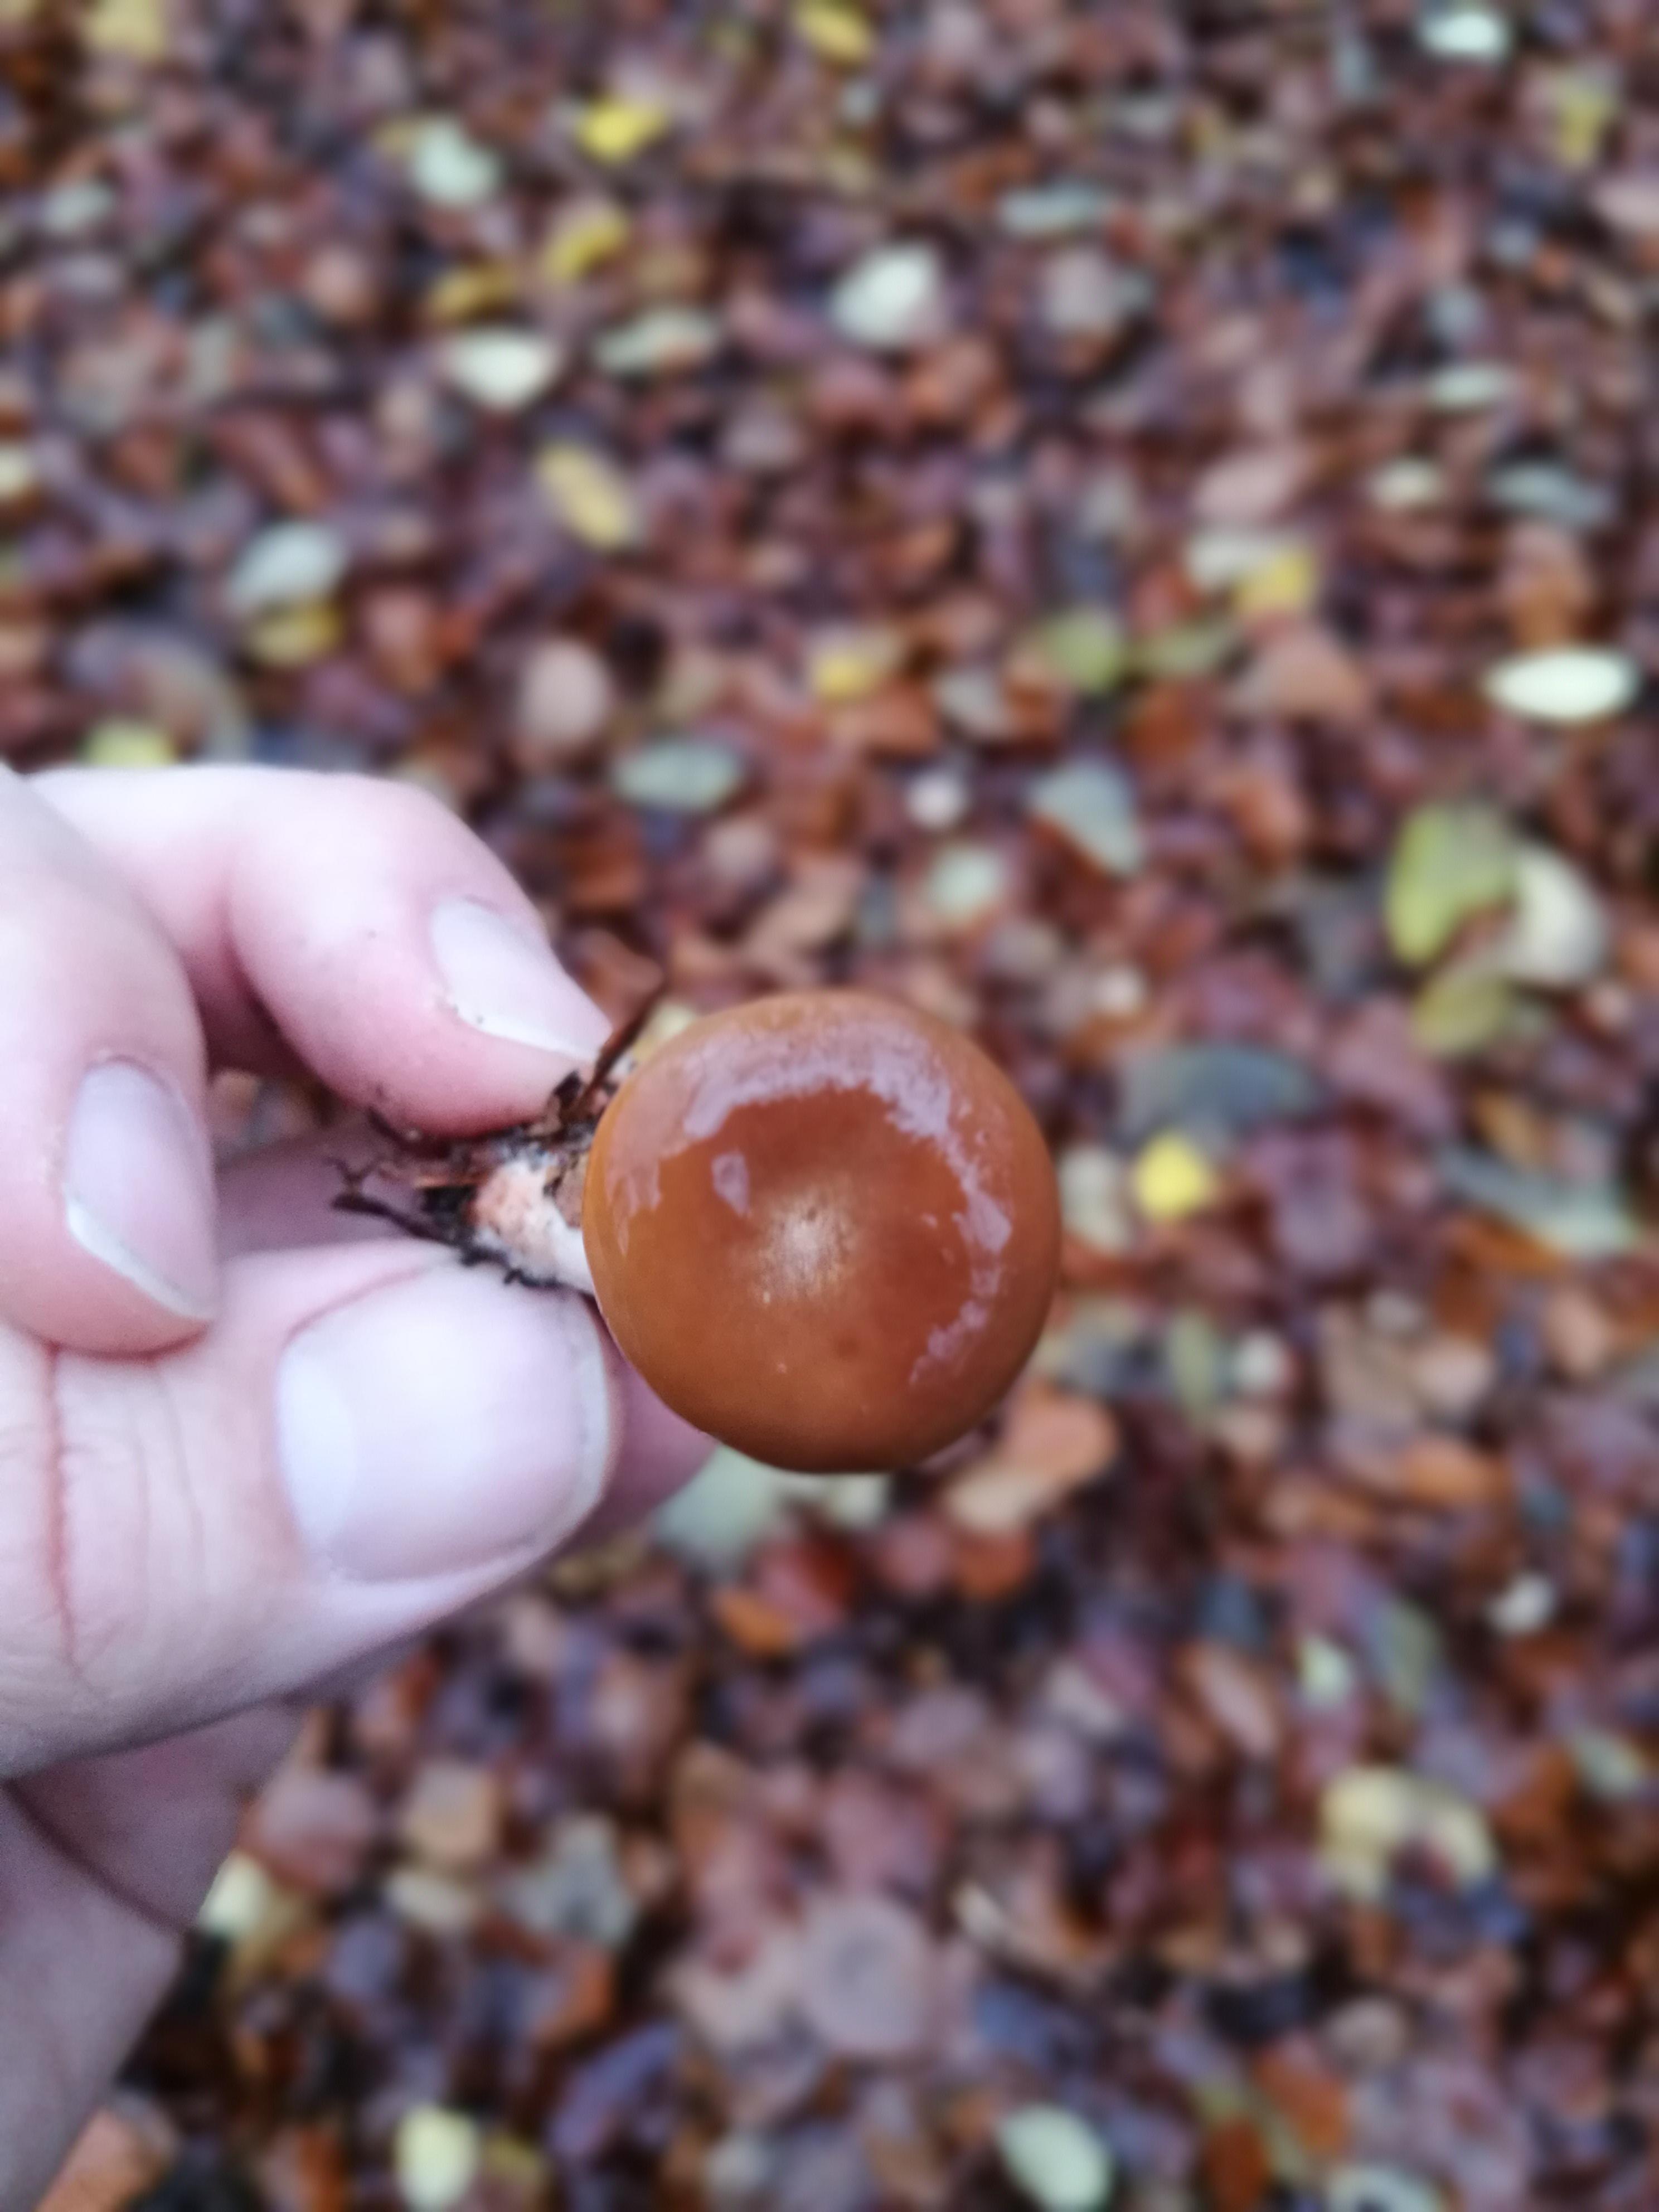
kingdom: Fungi
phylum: Basidiomycota
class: Agaricomycetes
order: Russulales
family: Russulaceae
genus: Lactarius
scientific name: Lactarius subdulcis
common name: sødlig mælkehat
